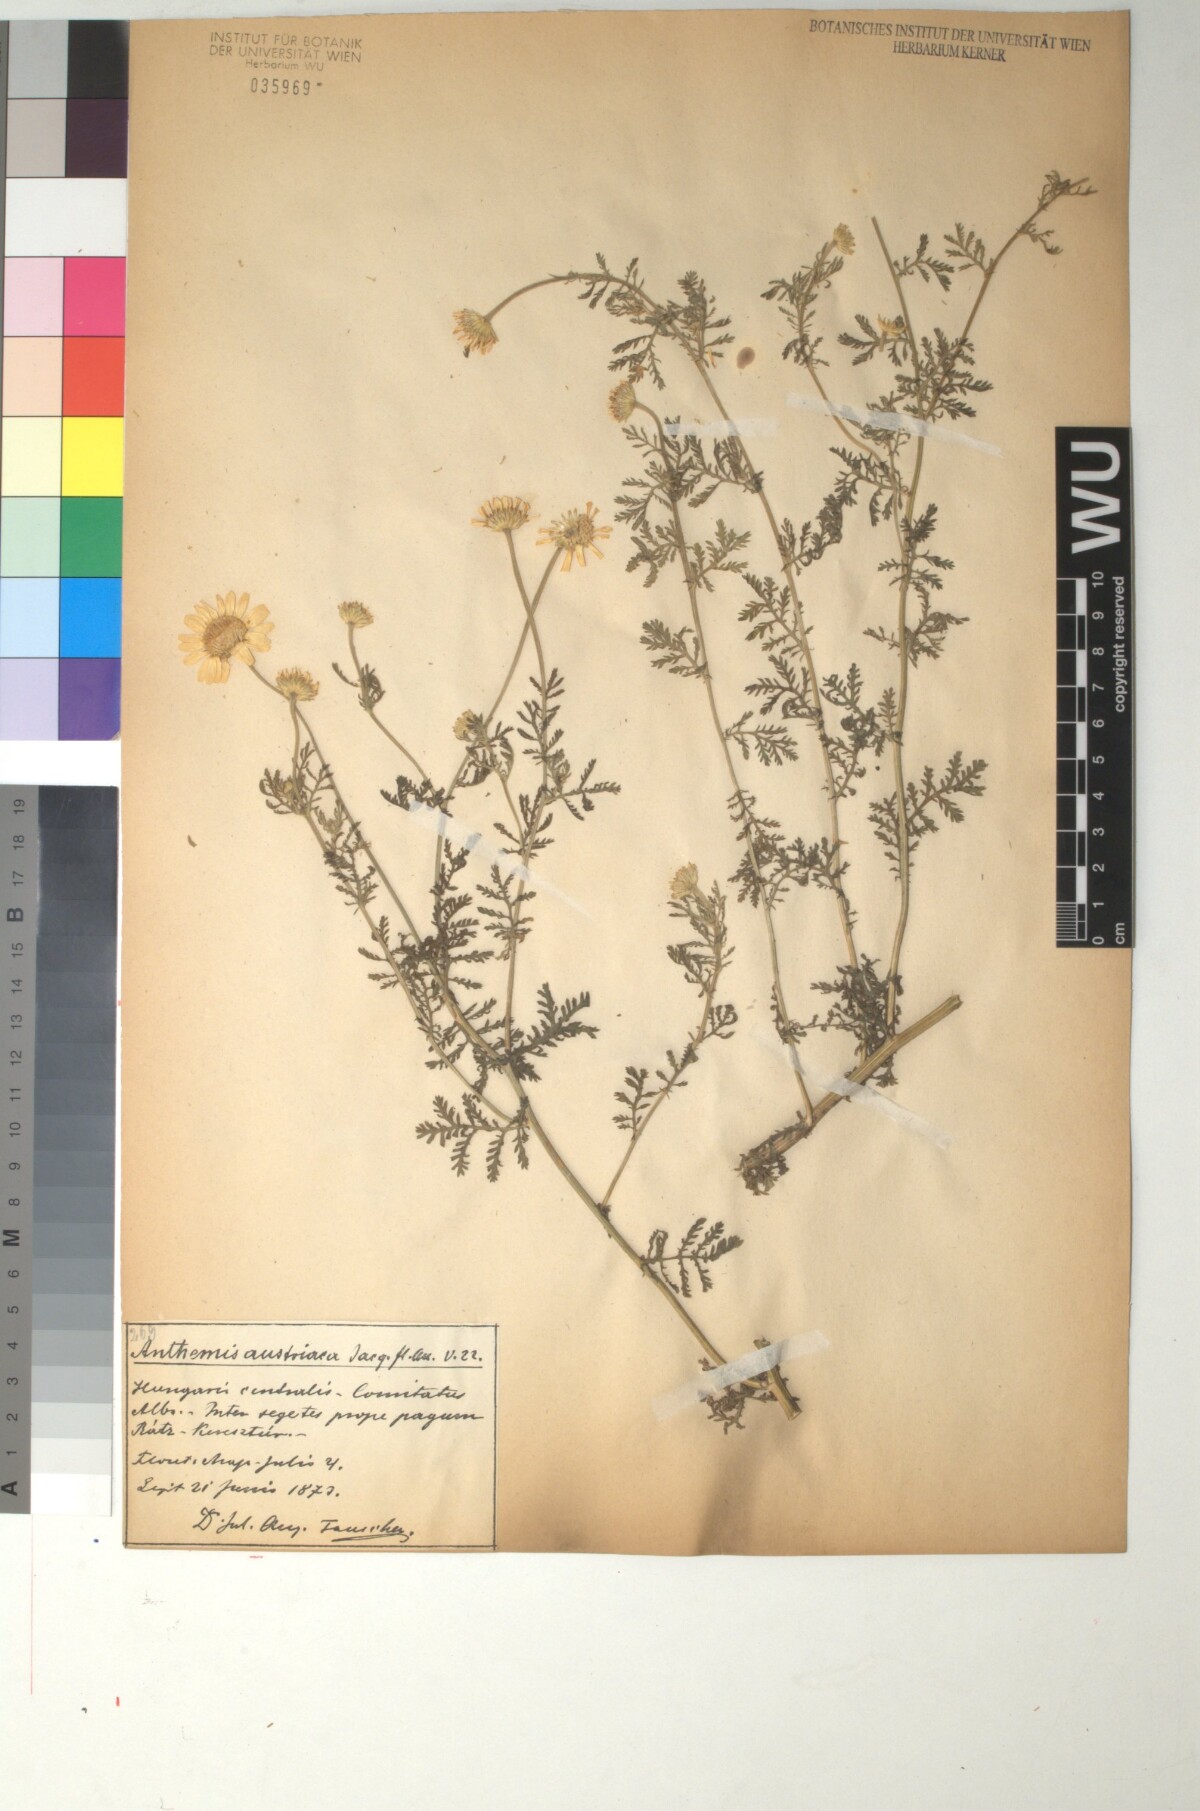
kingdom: Plantae
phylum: Tracheophyta
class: Magnoliopsida
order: Asterales
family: Asteraceae
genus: Cota
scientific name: Cota austriaca
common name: Austrian chamomile
